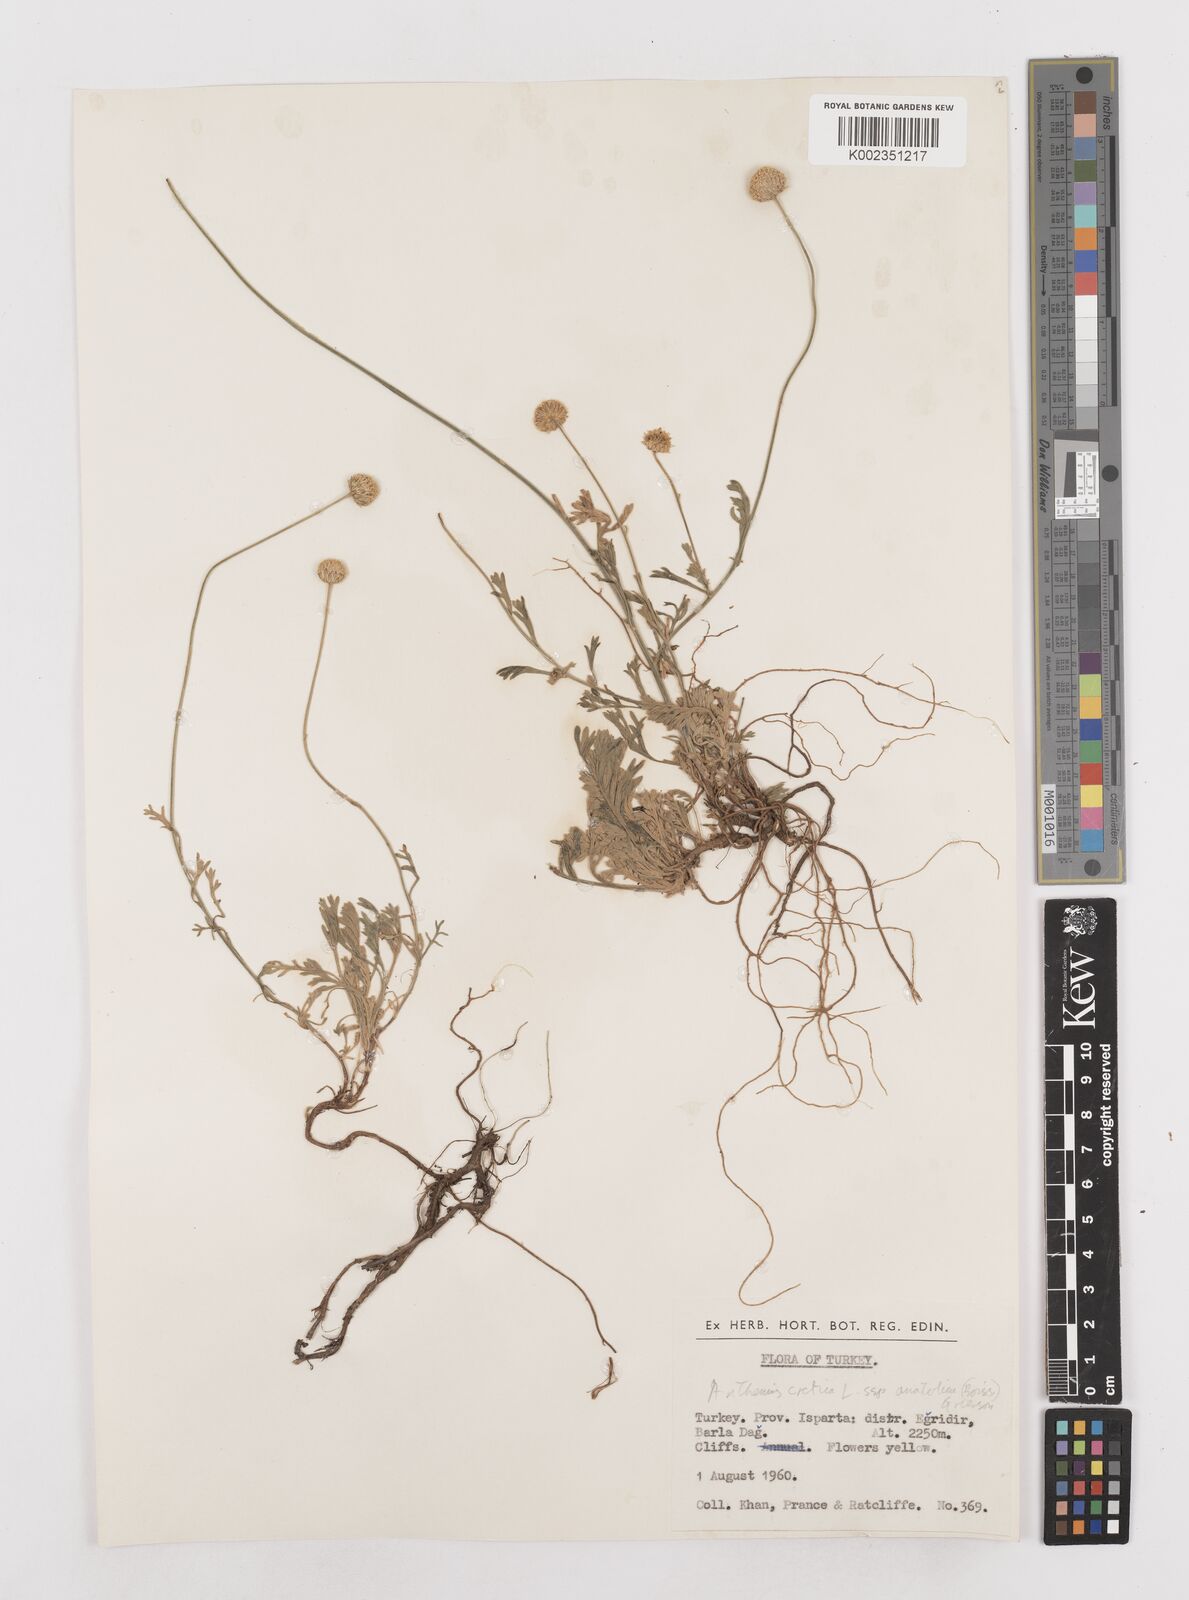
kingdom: Plantae
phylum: Tracheophyta
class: Magnoliopsida
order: Asterales
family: Asteraceae
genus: Anthemis
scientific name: Anthemis cretica
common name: Mountain dog-daisy
